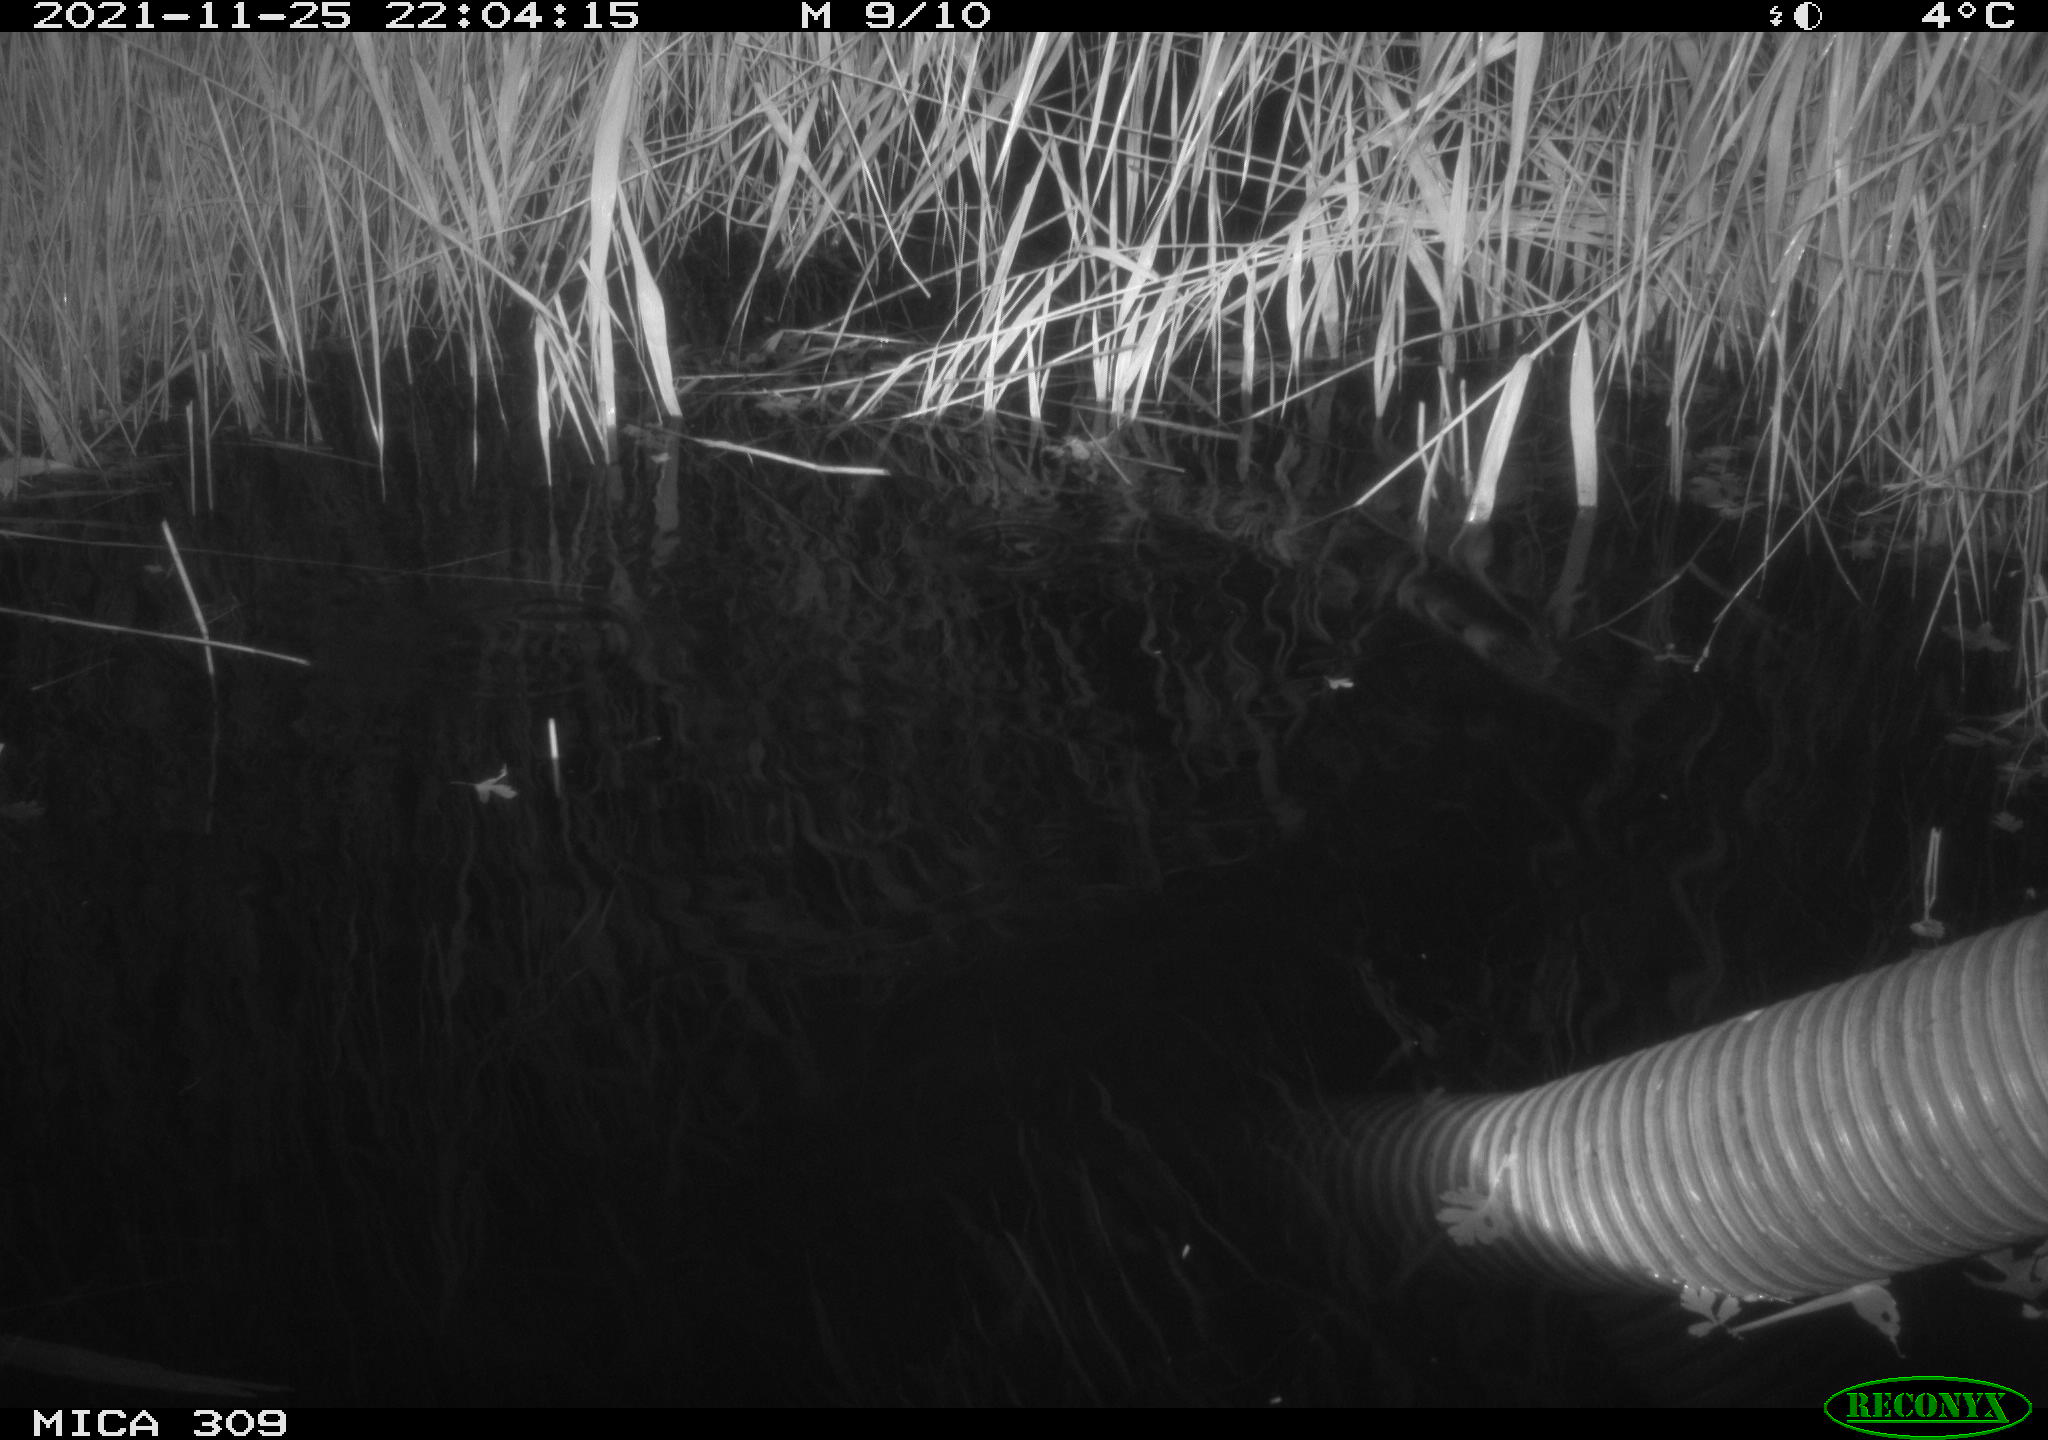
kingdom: Animalia
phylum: Chordata
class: Mammalia
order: Rodentia
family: Muridae
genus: Rattus
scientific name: Rattus norvegicus
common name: Brown rat
